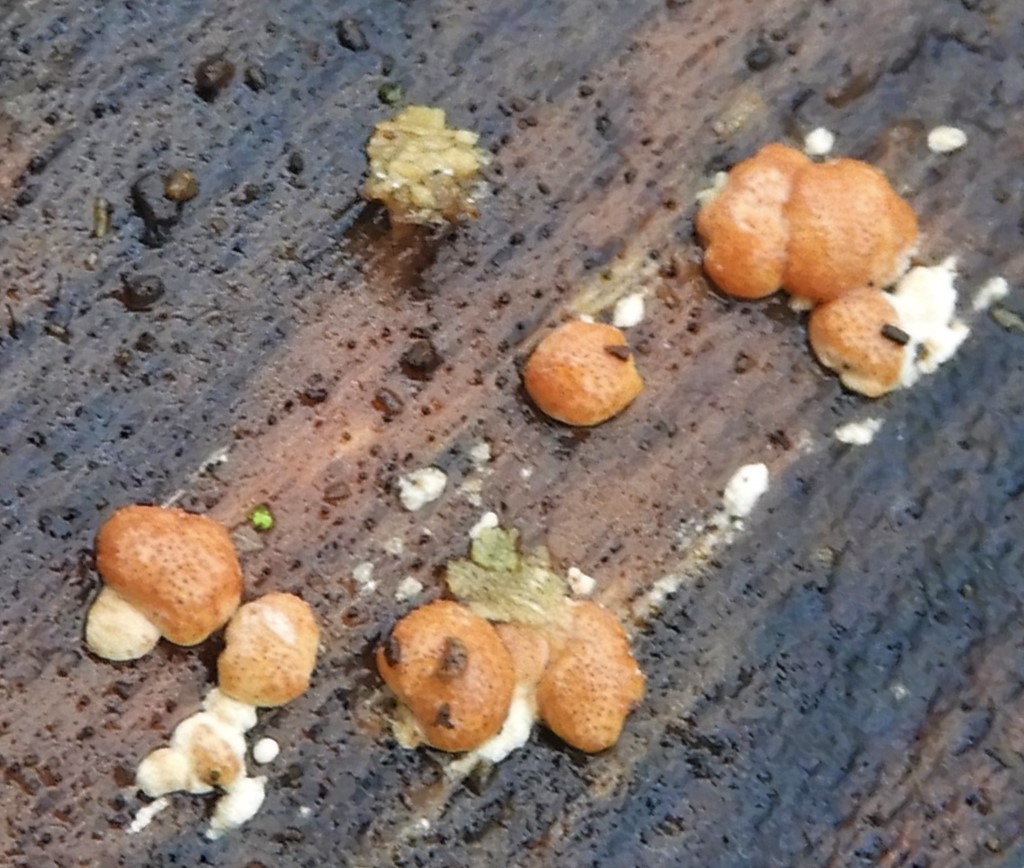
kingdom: Fungi
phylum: Ascomycota
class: Sordariomycetes
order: Hypocreales
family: Hypocreaceae
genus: Trichoderma
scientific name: Trichoderma europaeum
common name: rosabrun kødkerne
